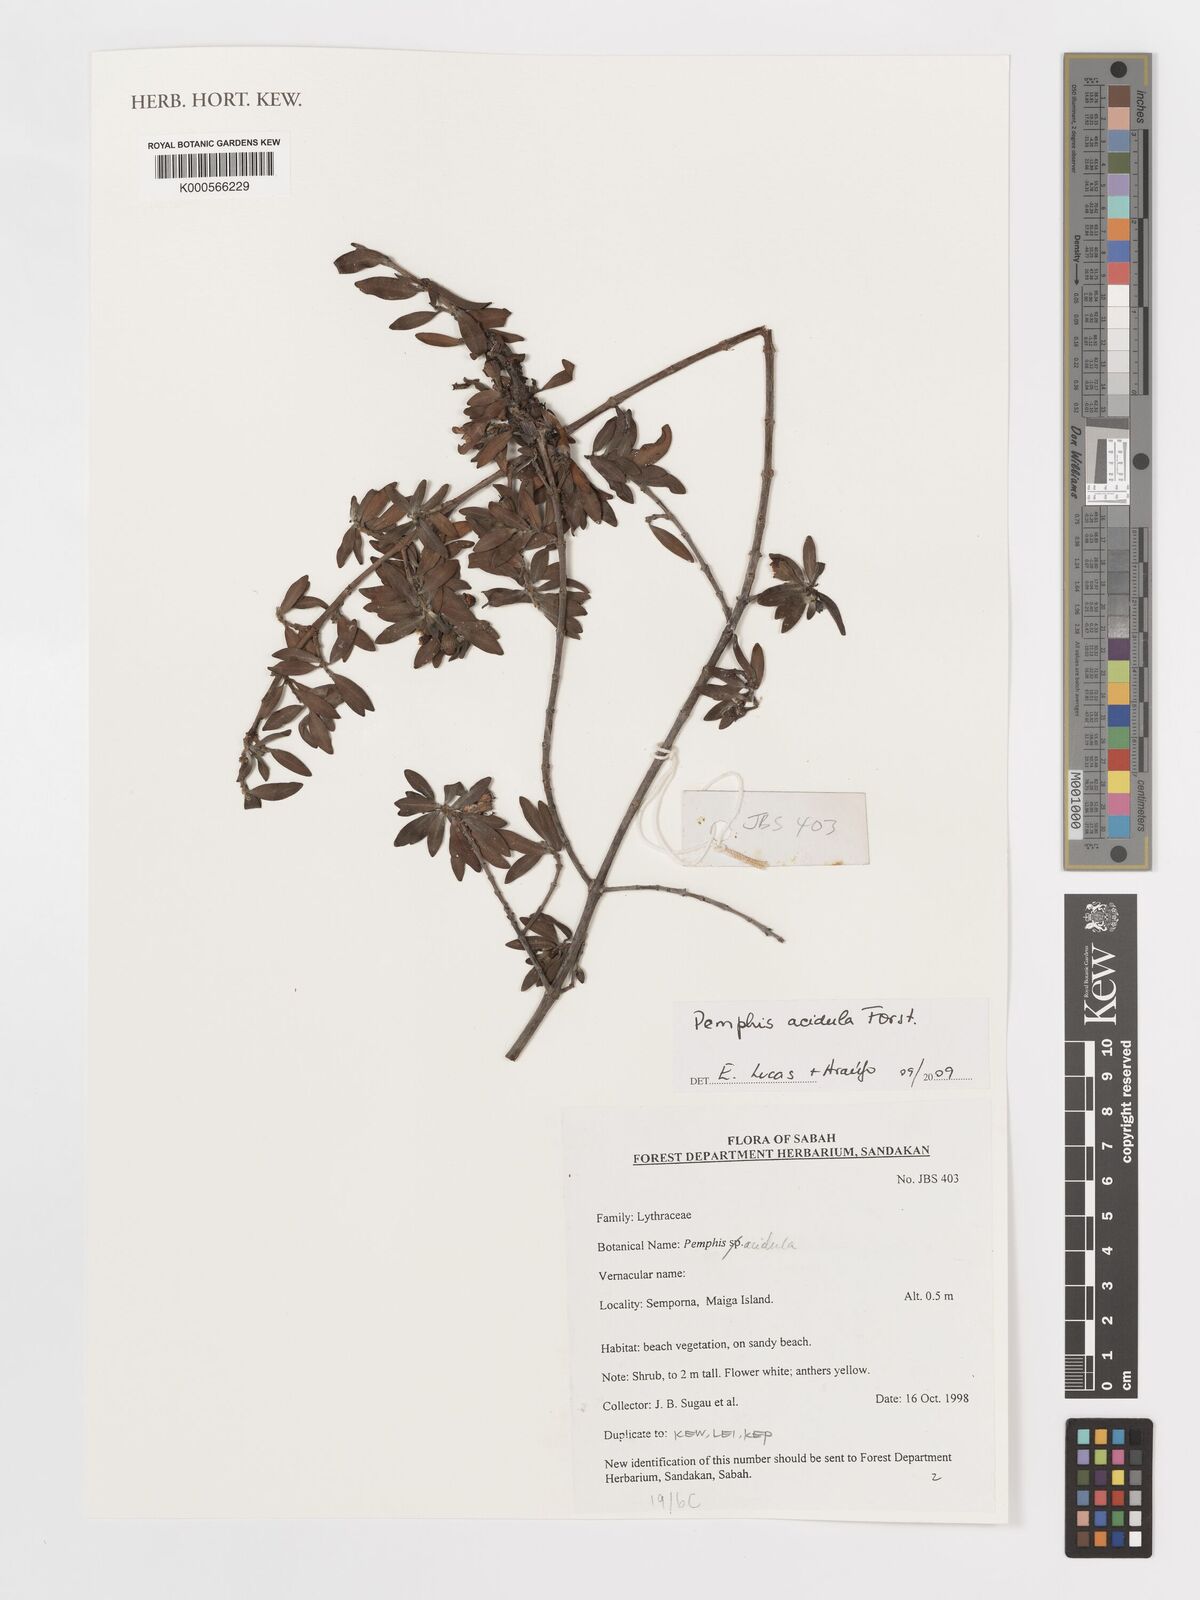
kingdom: Plantae
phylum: Tracheophyta
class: Magnoliopsida
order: Myrtales
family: Lythraceae
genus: Pemphis
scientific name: Pemphis acidula
